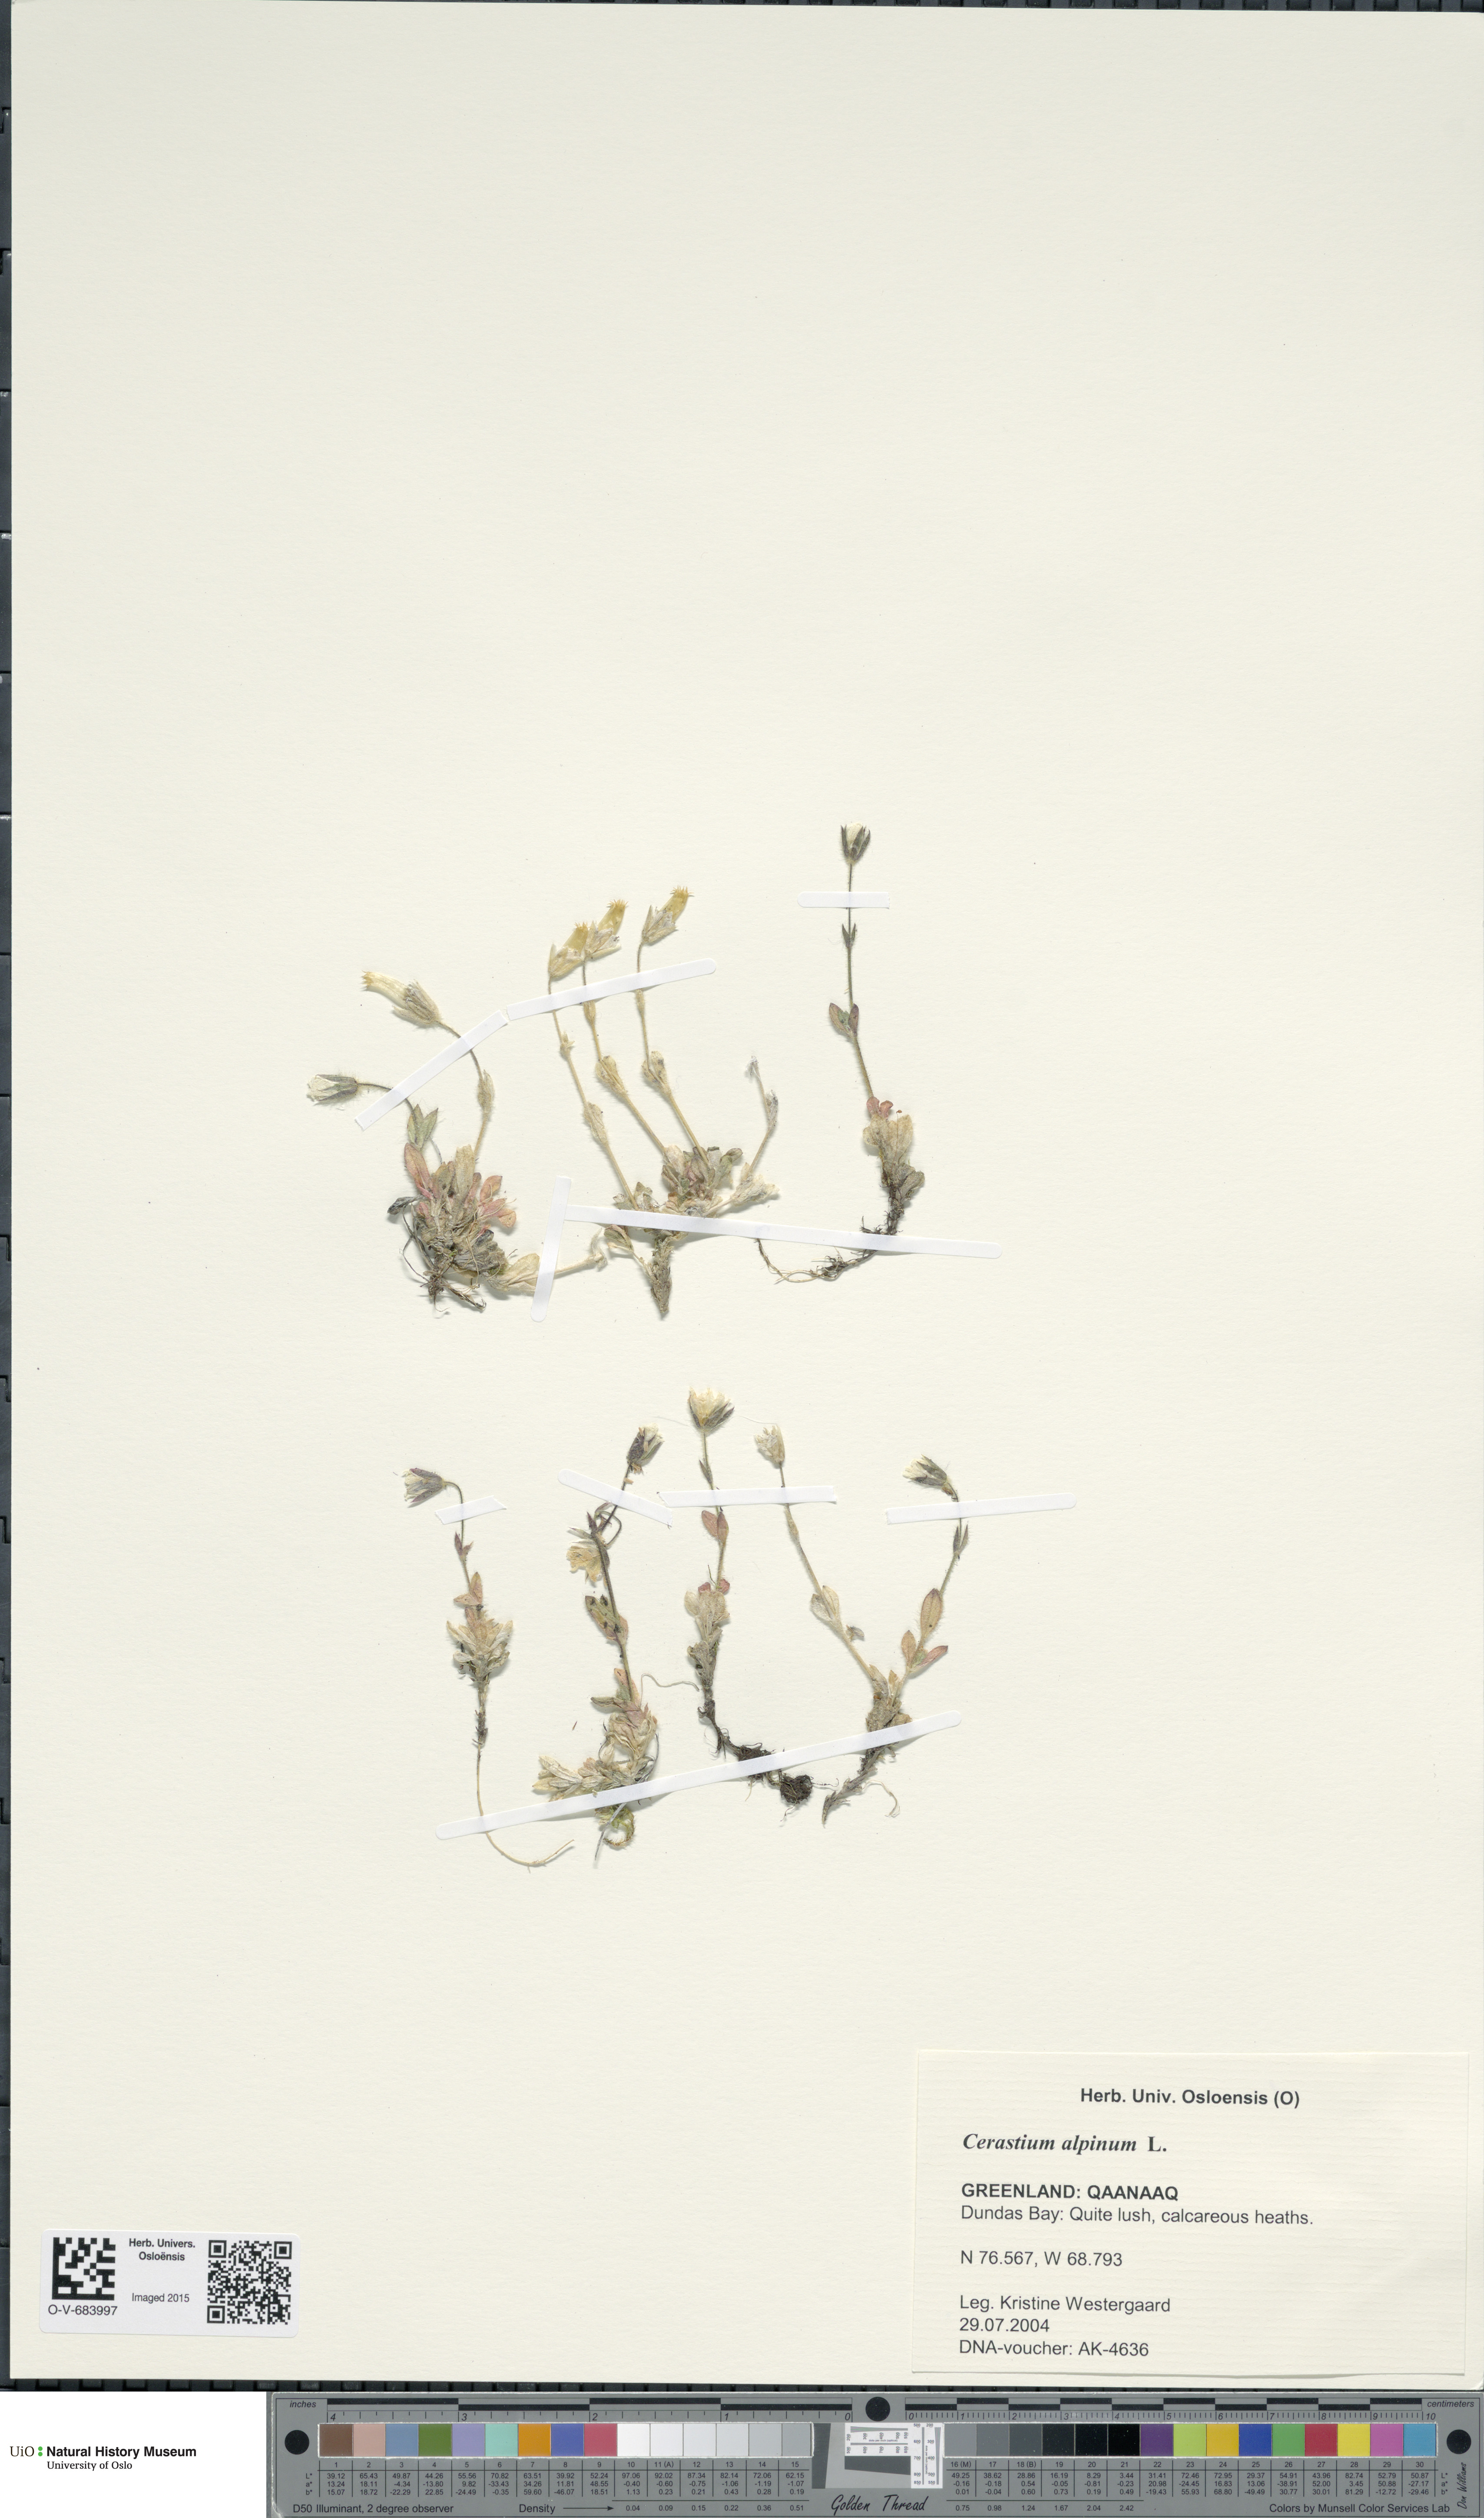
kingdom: Plantae
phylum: Tracheophyta
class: Magnoliopsida
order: Caryophyllales
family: Caryophyllaceae
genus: Cerastium
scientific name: Cerastium alpinum
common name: Alpine mouse-ear
